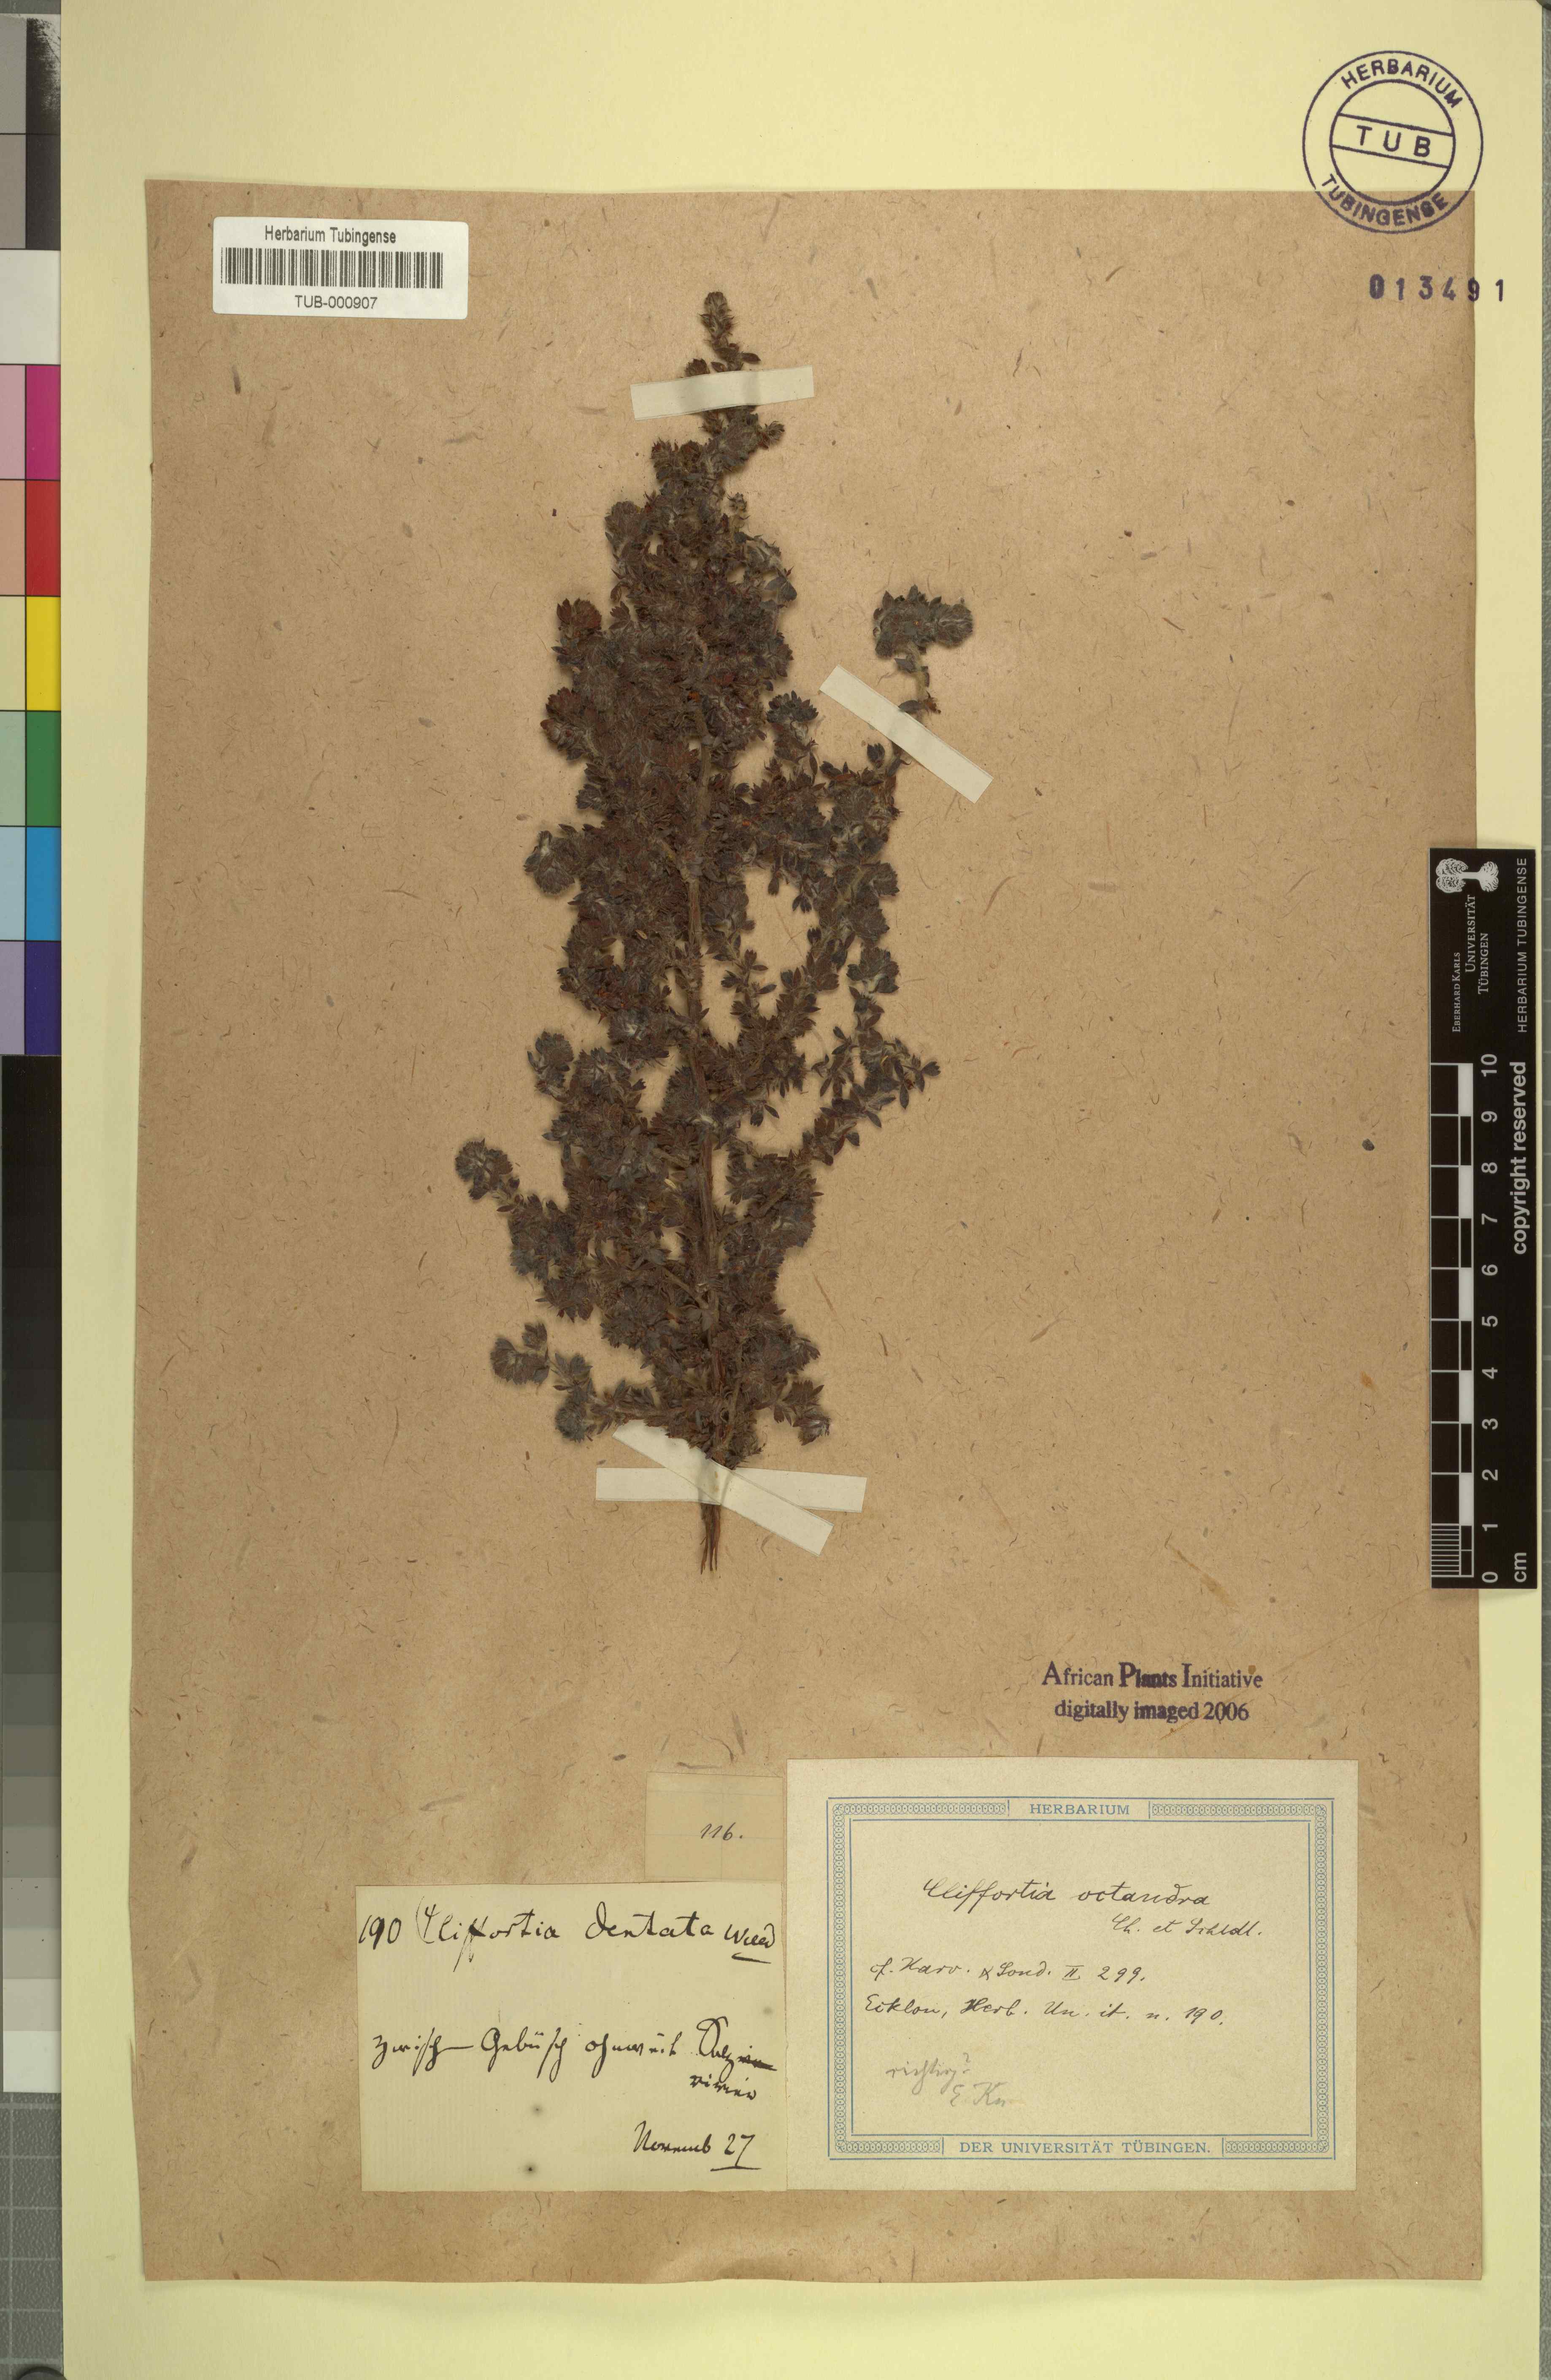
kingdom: Plantae
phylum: Tracheophyta
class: Magnoliopsida
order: Rosales
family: Rosaceae
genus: Cliffortia
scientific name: Cliffortia dentata
